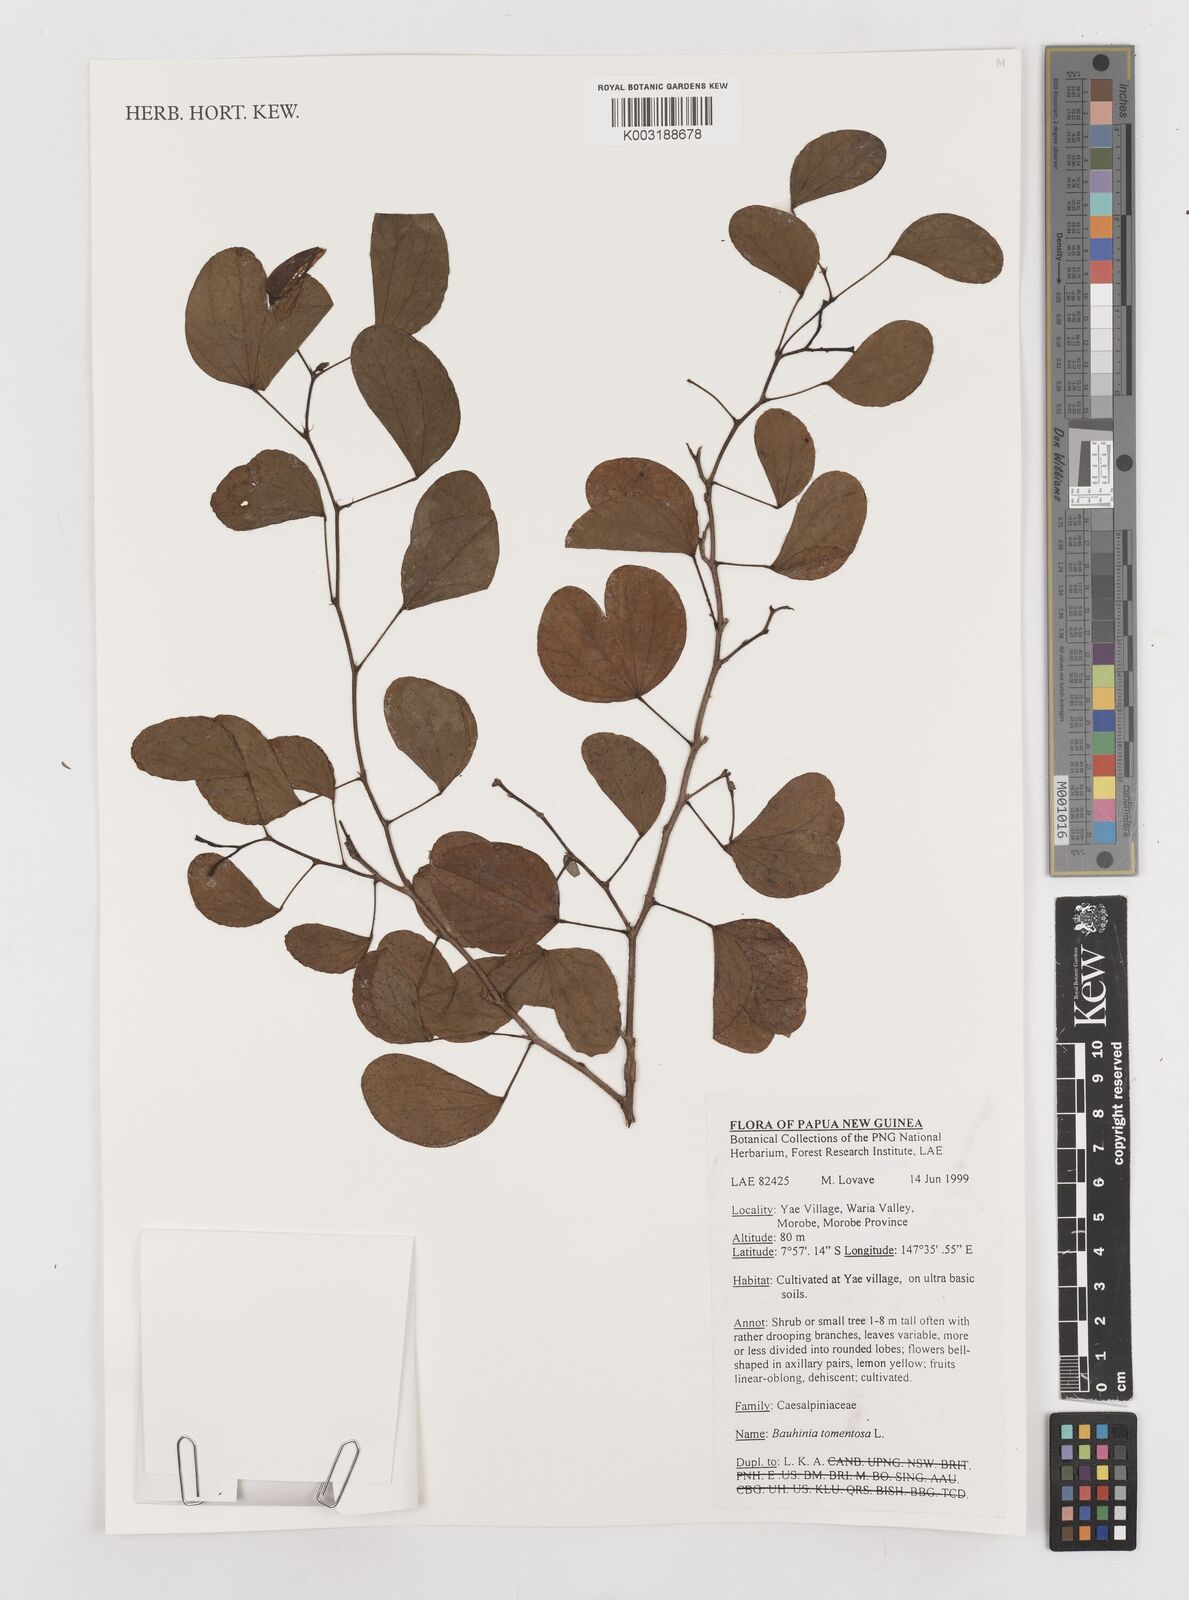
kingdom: Plantae
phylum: Tracheophyta
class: Magnoliopsida
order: Fabales
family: Fabaceae
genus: Bauhinia
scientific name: Bauhinia tomentosa
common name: Bell bauhinia
